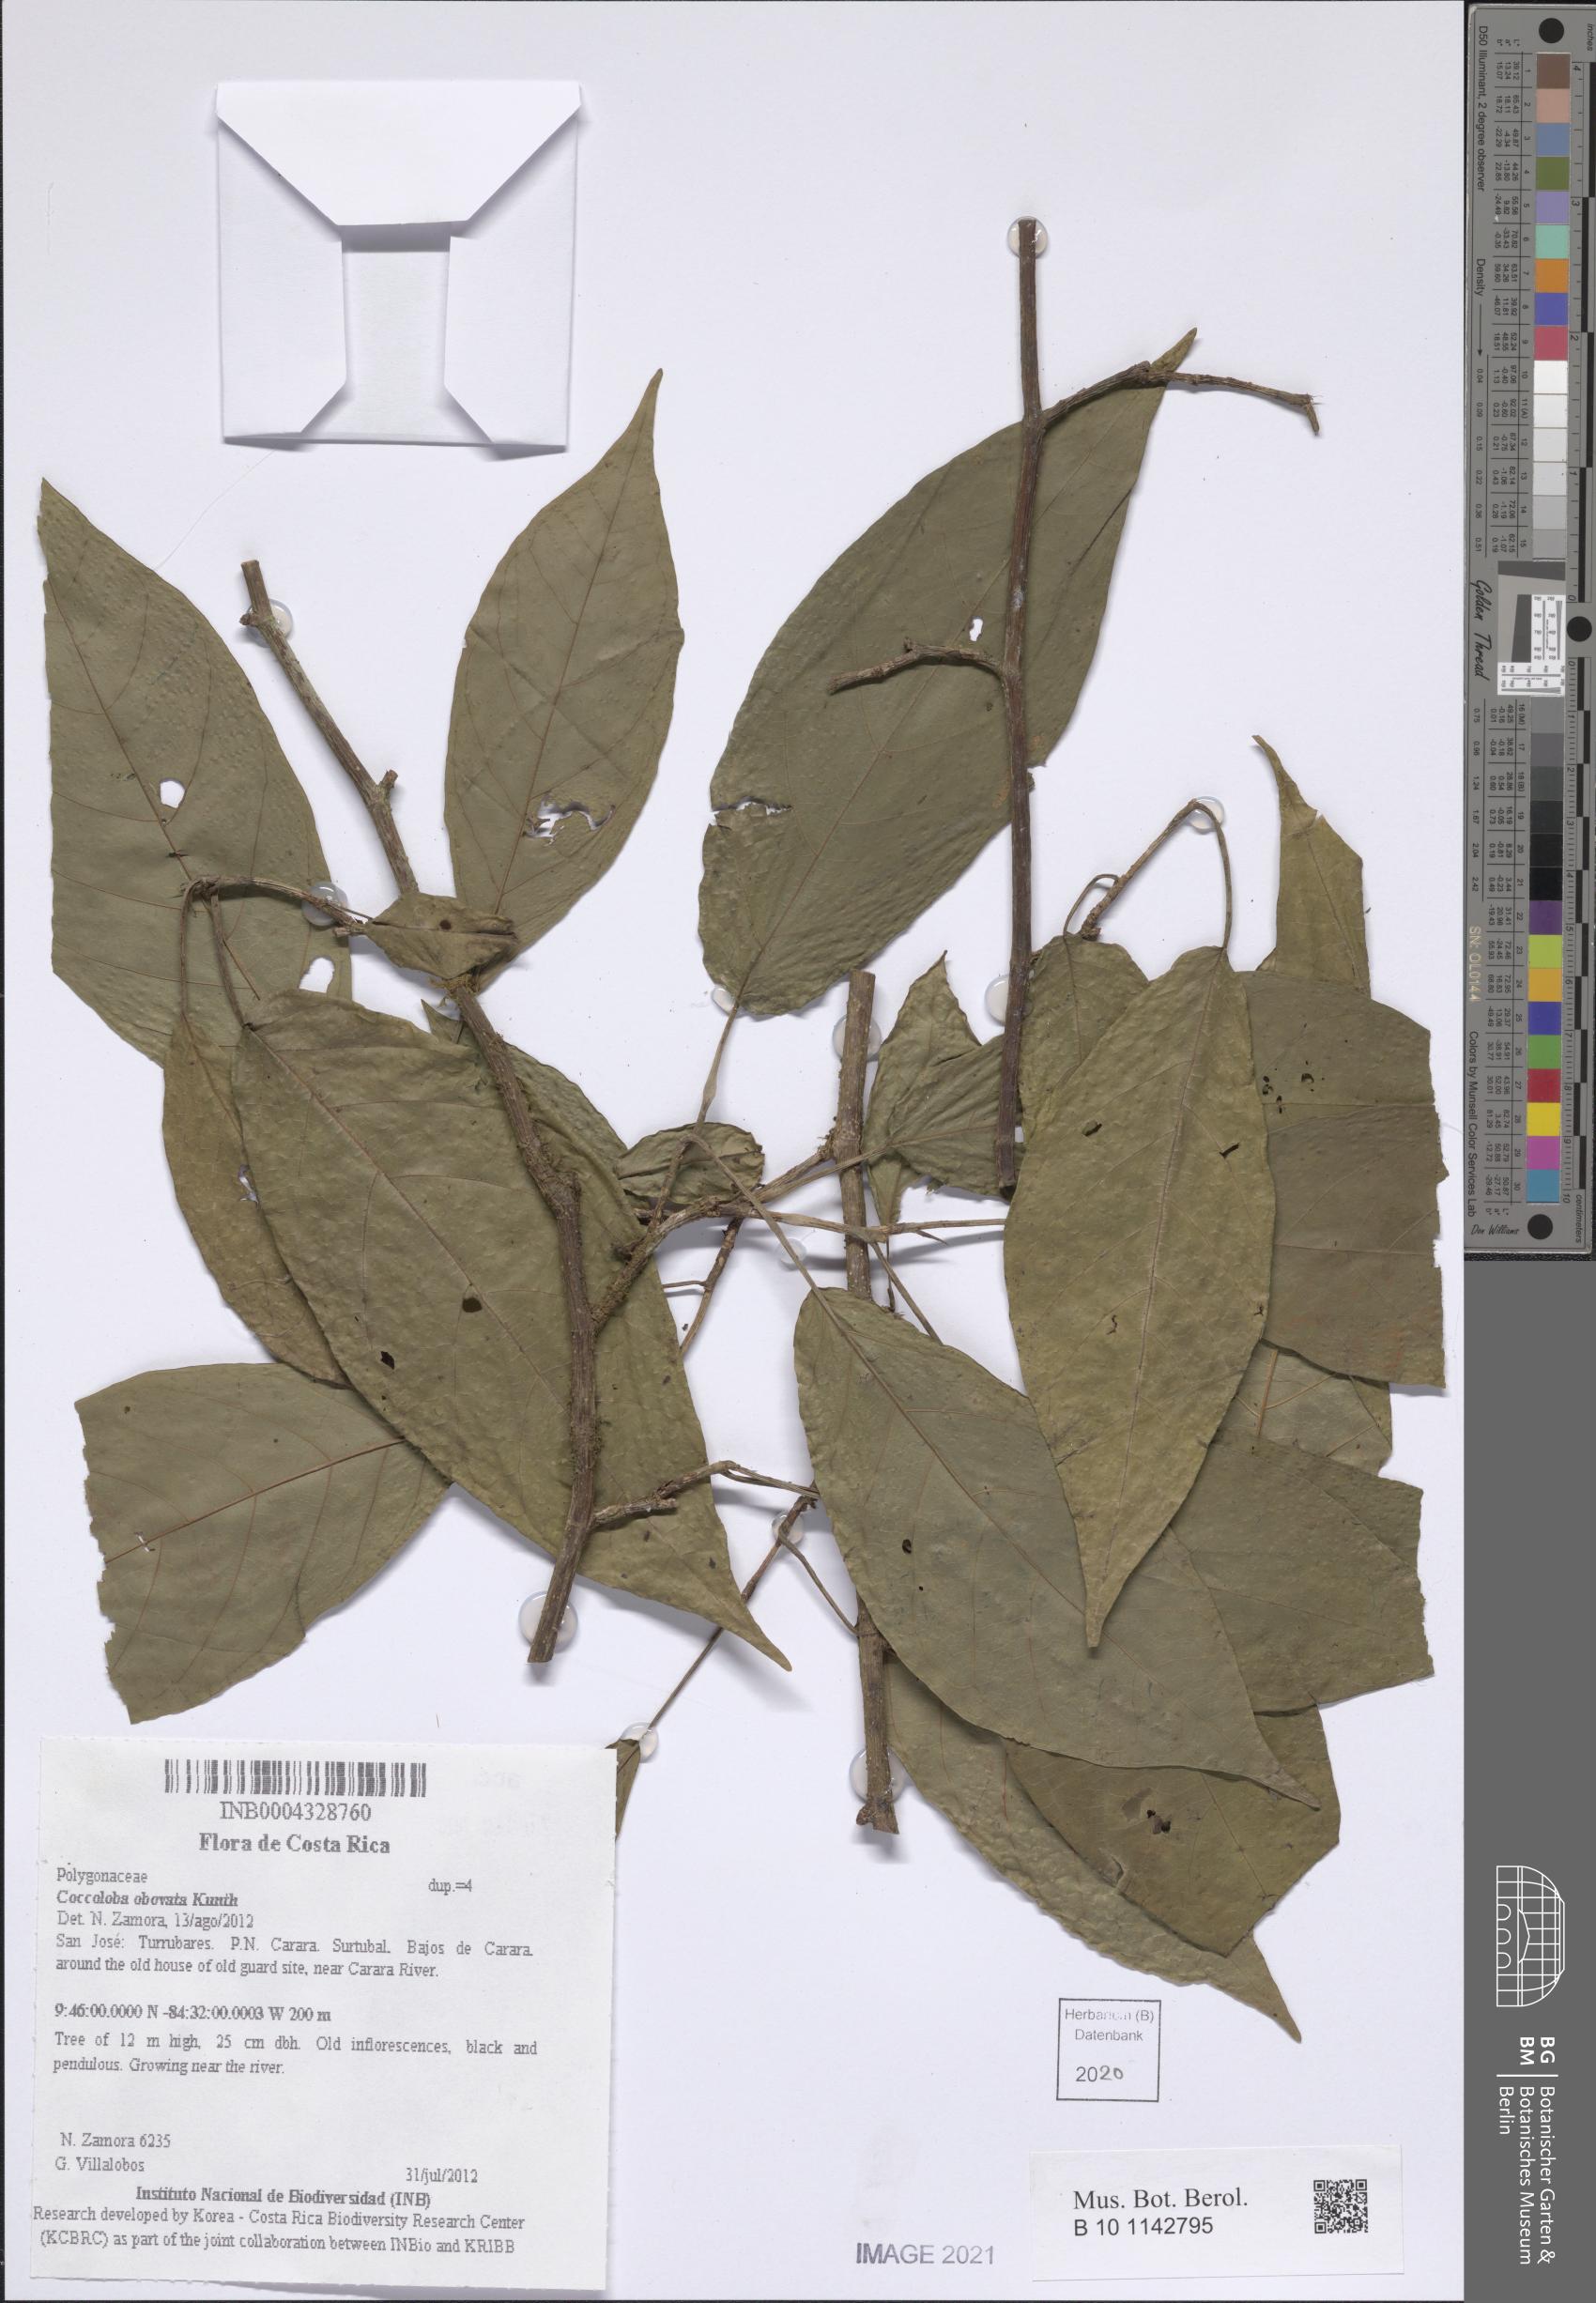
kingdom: Plantae
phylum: Tracheophyta
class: Magnoliopsida
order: Caryophyllales
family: Polygonaceae
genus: Coccoloba
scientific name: Coccoloba obovata
